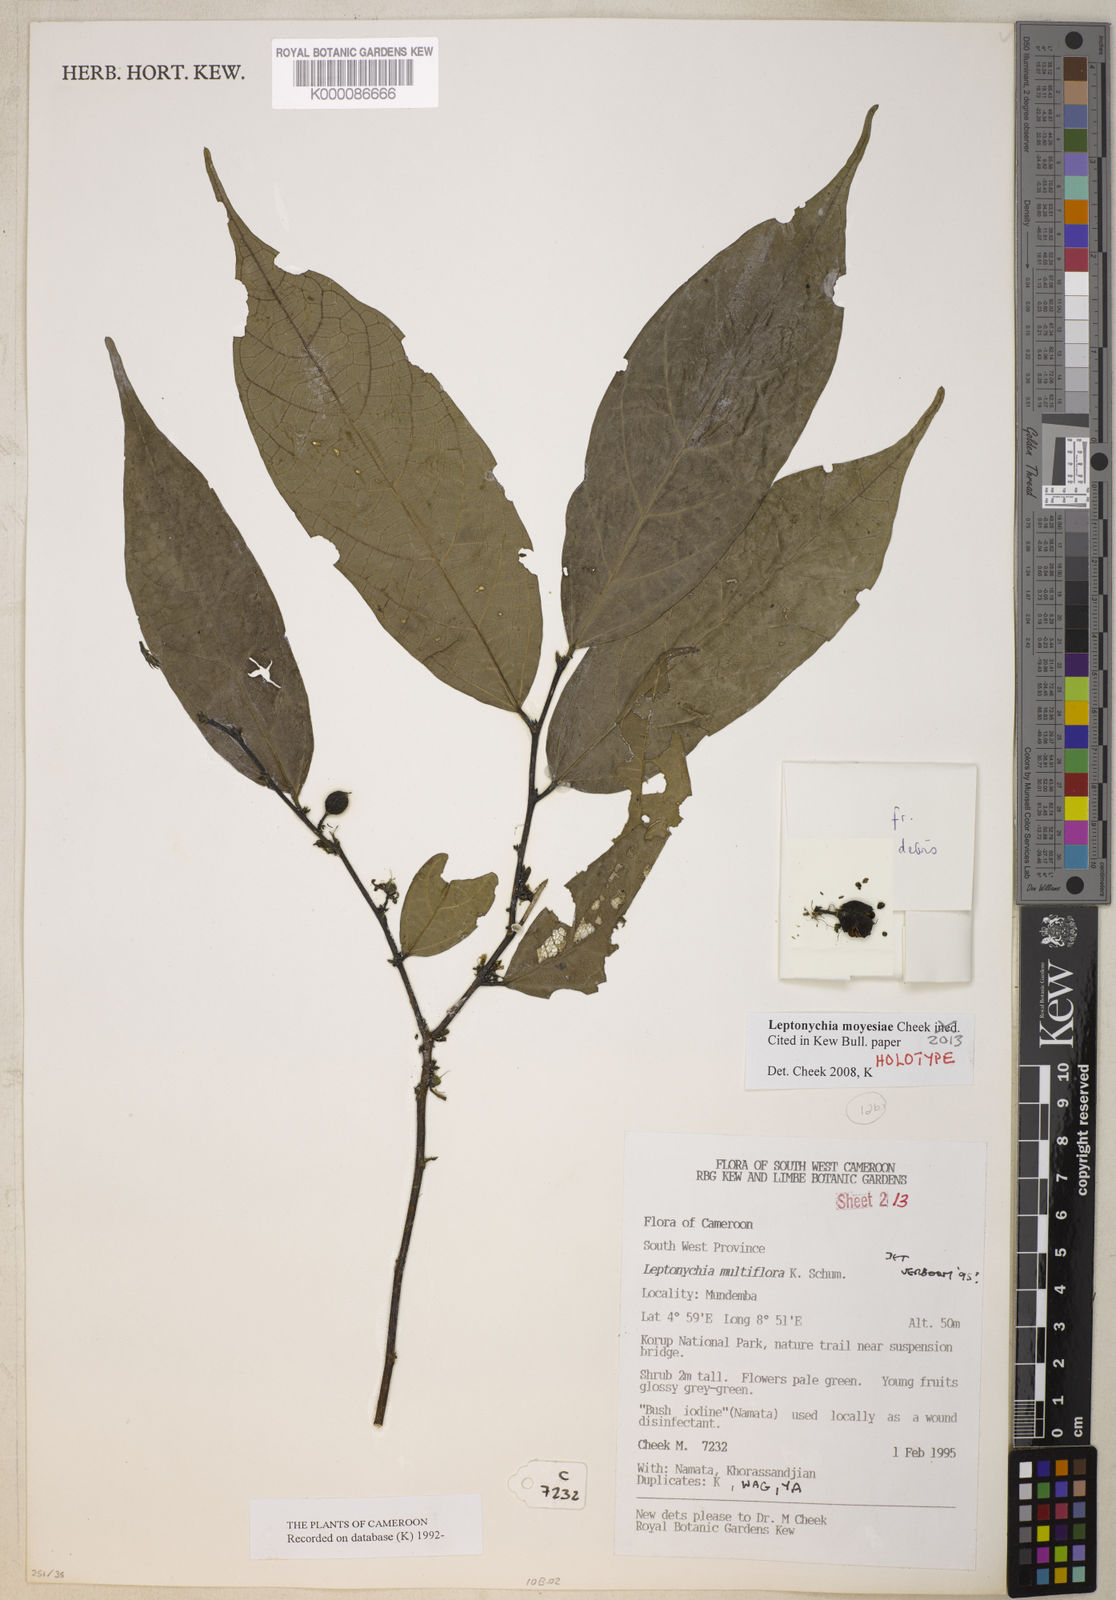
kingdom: Plantae
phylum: Tracheophyta
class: Magnoliopsida
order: Malvales
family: Malvaceae
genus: Leptonychia
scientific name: Leptonychia moyesiae
